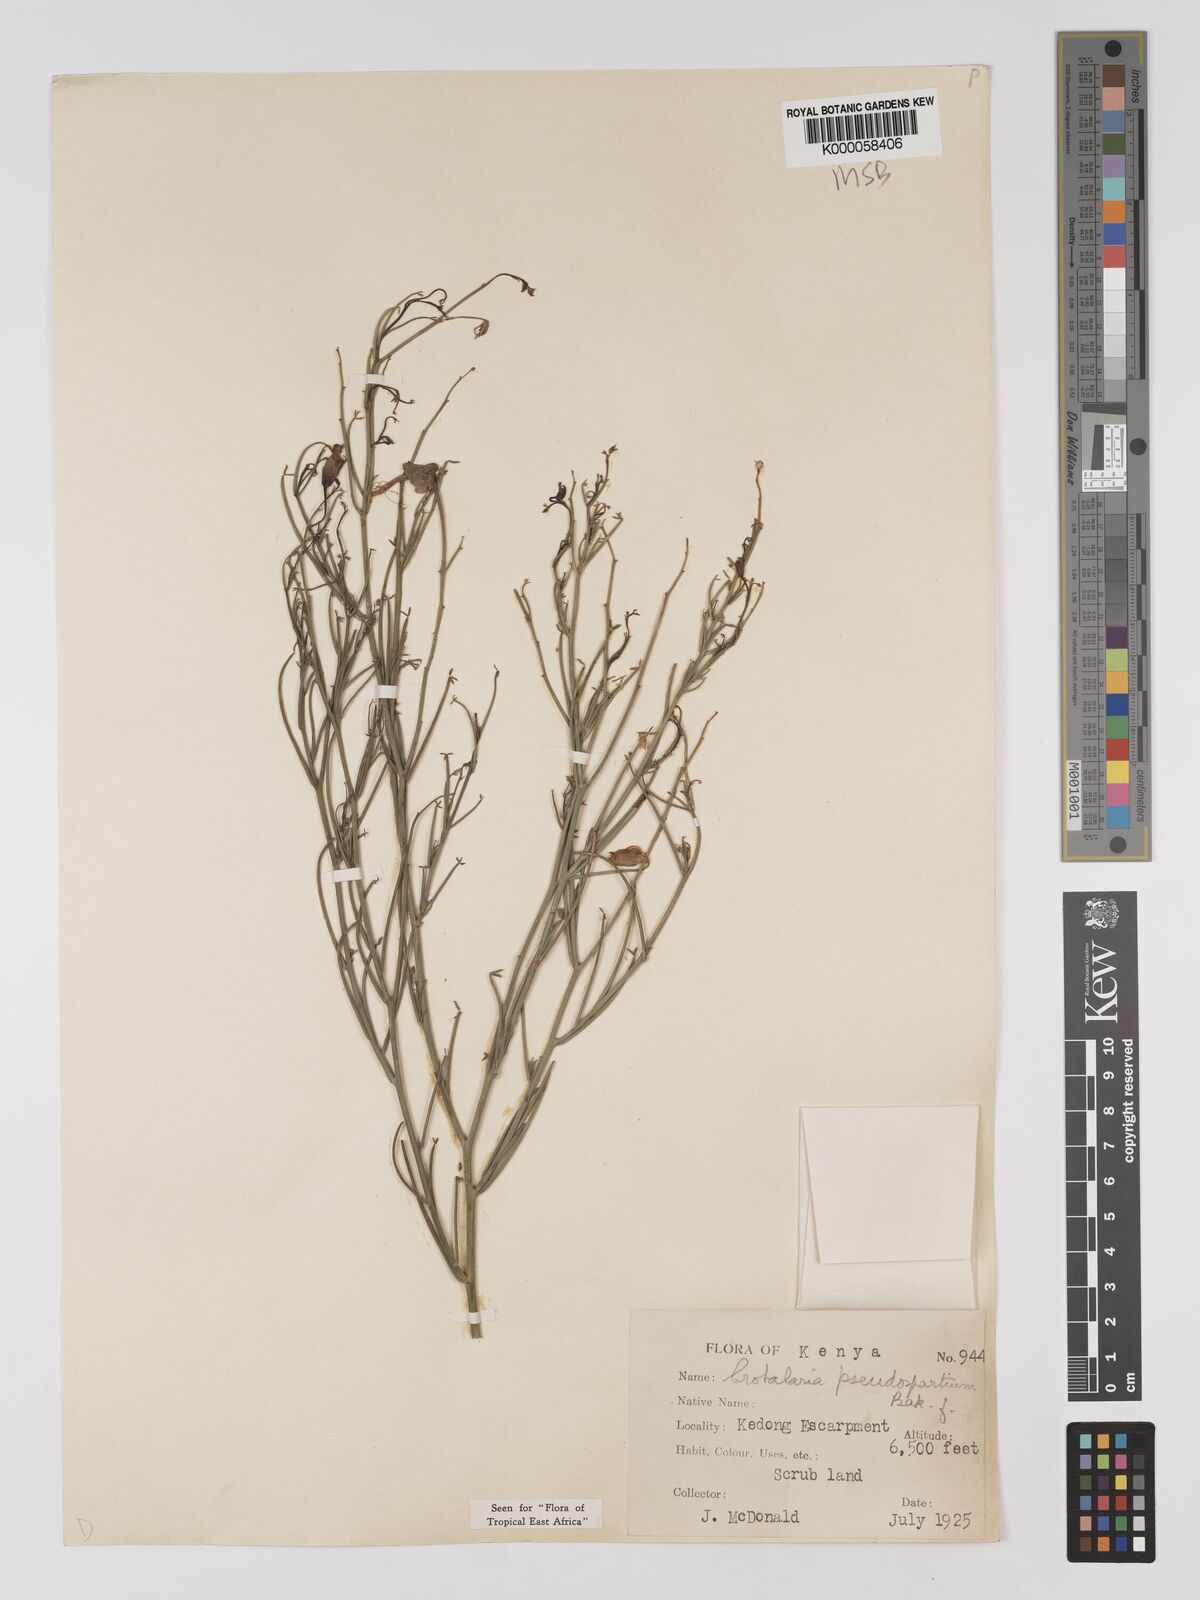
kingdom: Plantae
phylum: Tracheophyta
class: Magnoliopsida
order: Fabales
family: Fabaceae
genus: Crotalaria
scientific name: Crotalaria pseudospartium
